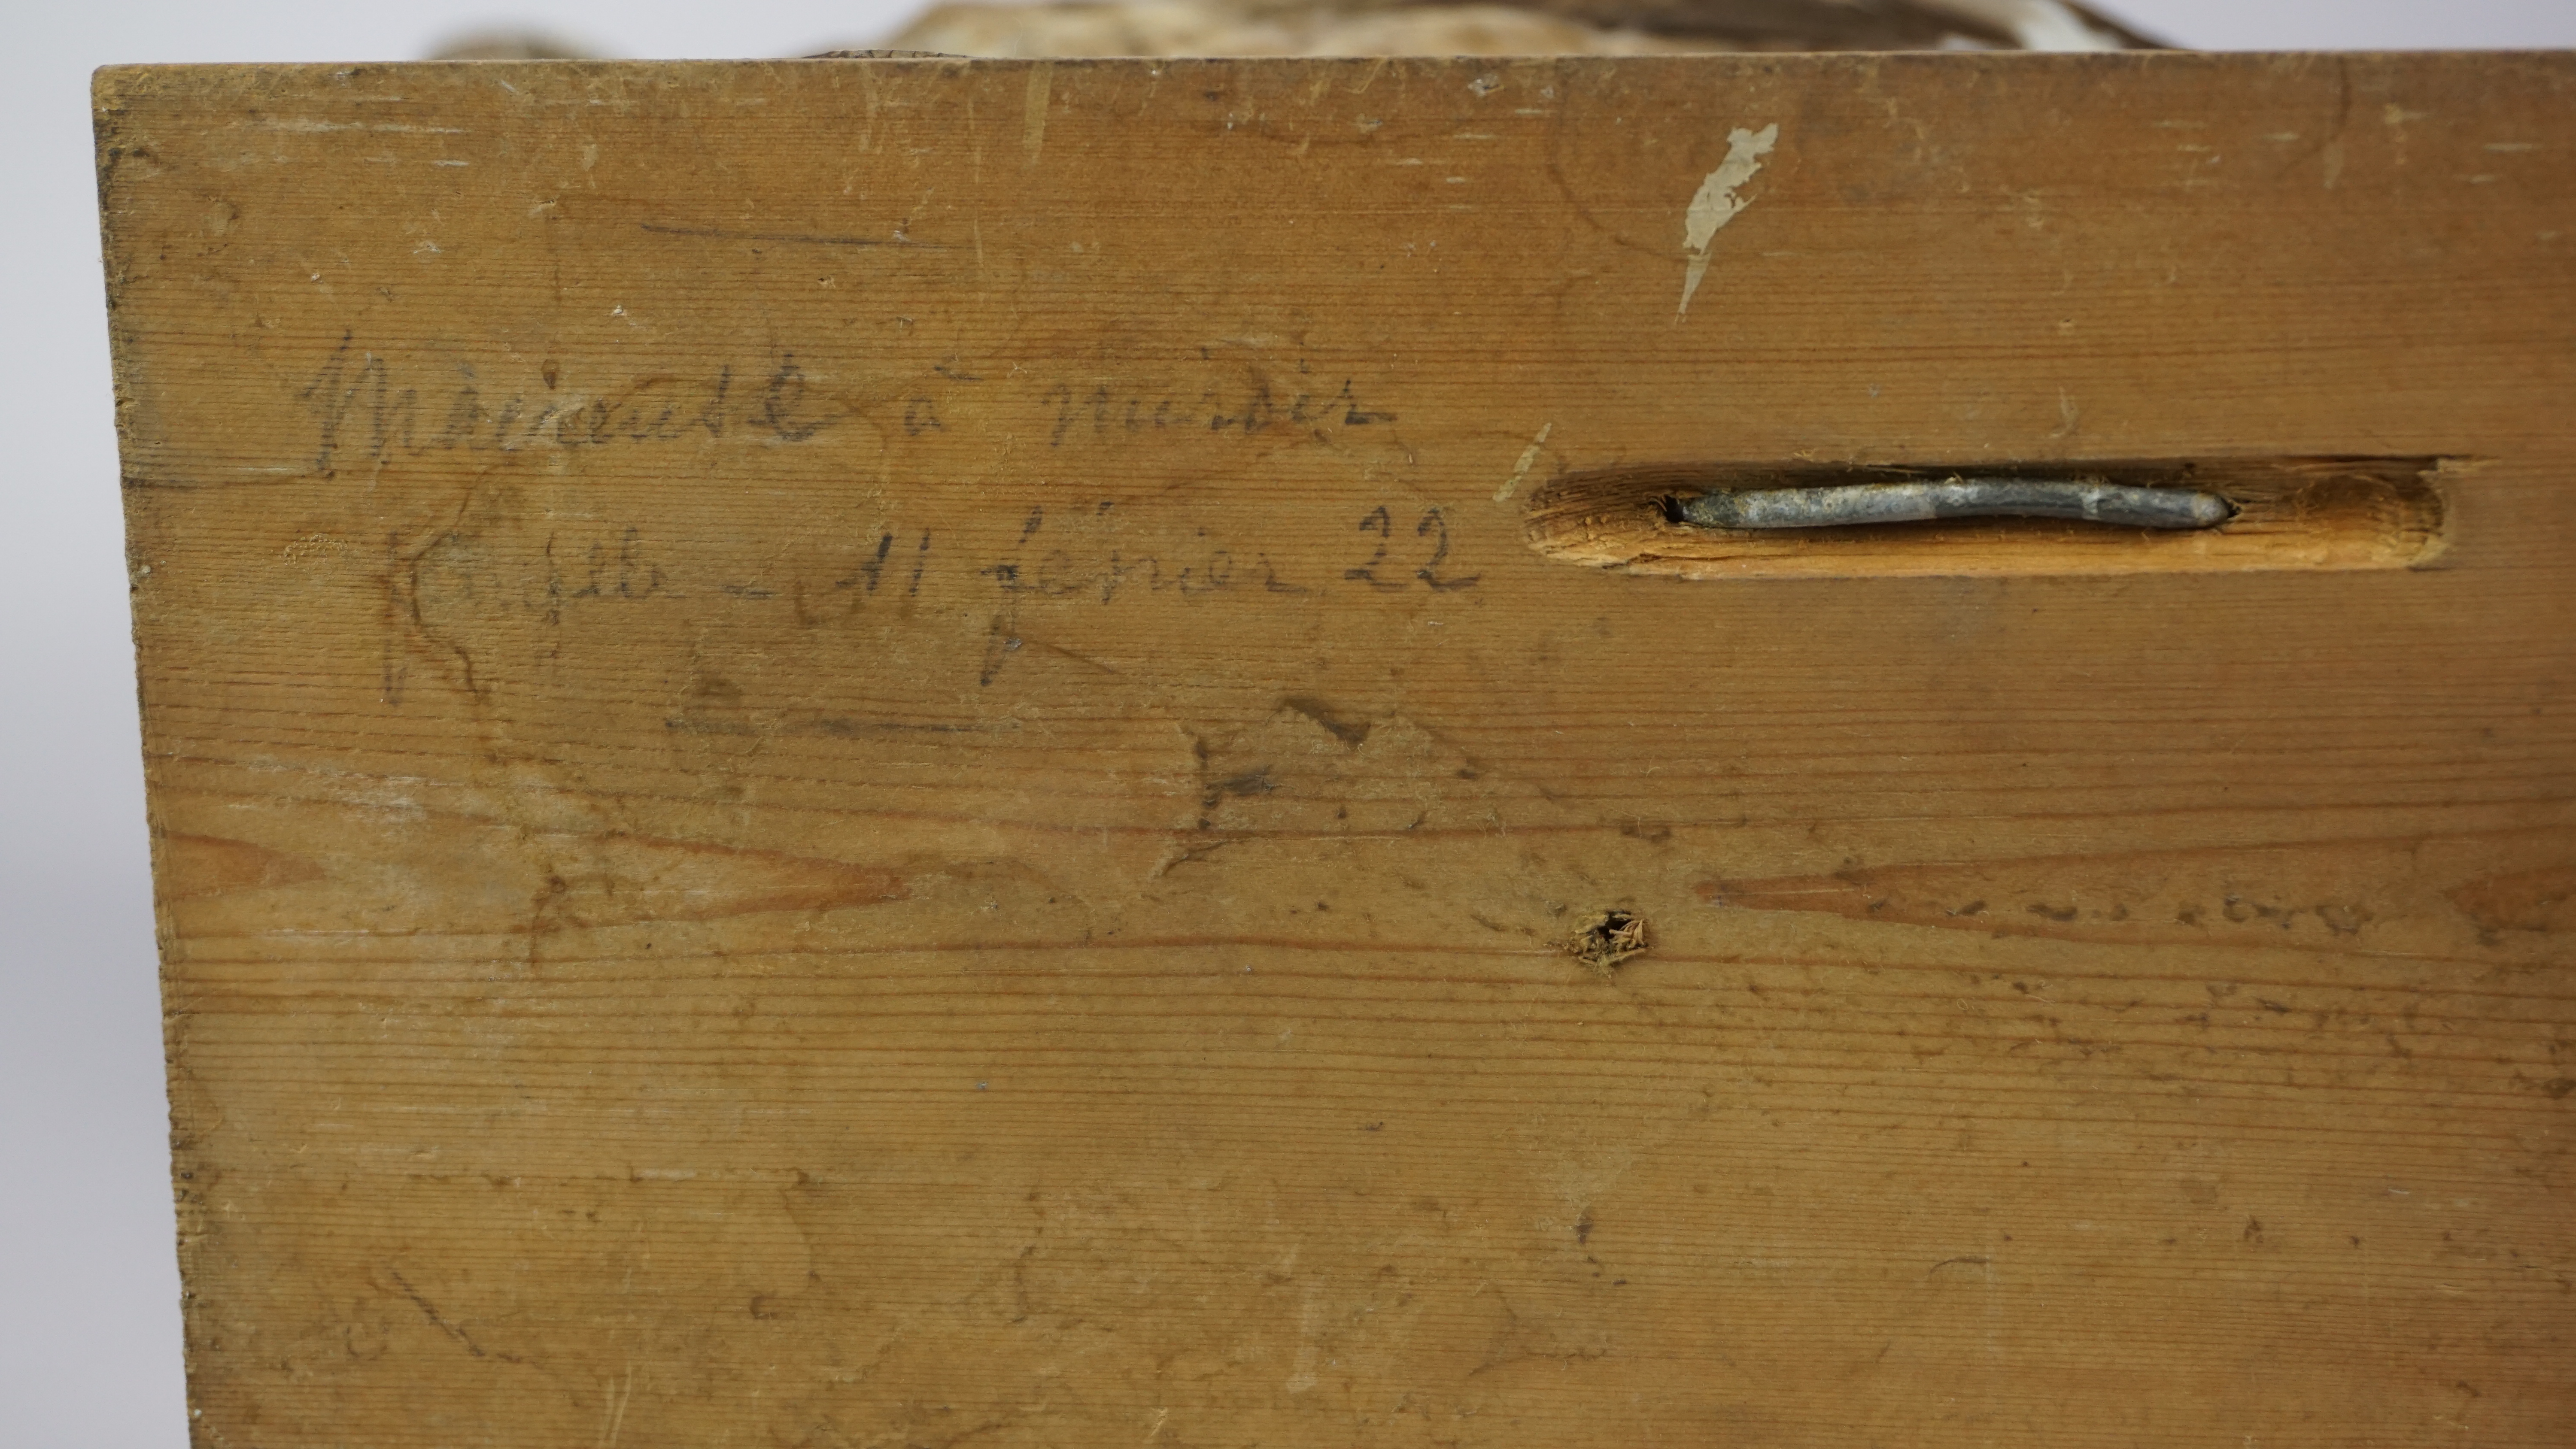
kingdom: Animalia
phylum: Chordata
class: Aves
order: Anseriformes
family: Anatidae
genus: Melanitta
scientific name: Melanitta fusca
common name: Velvet scoter
